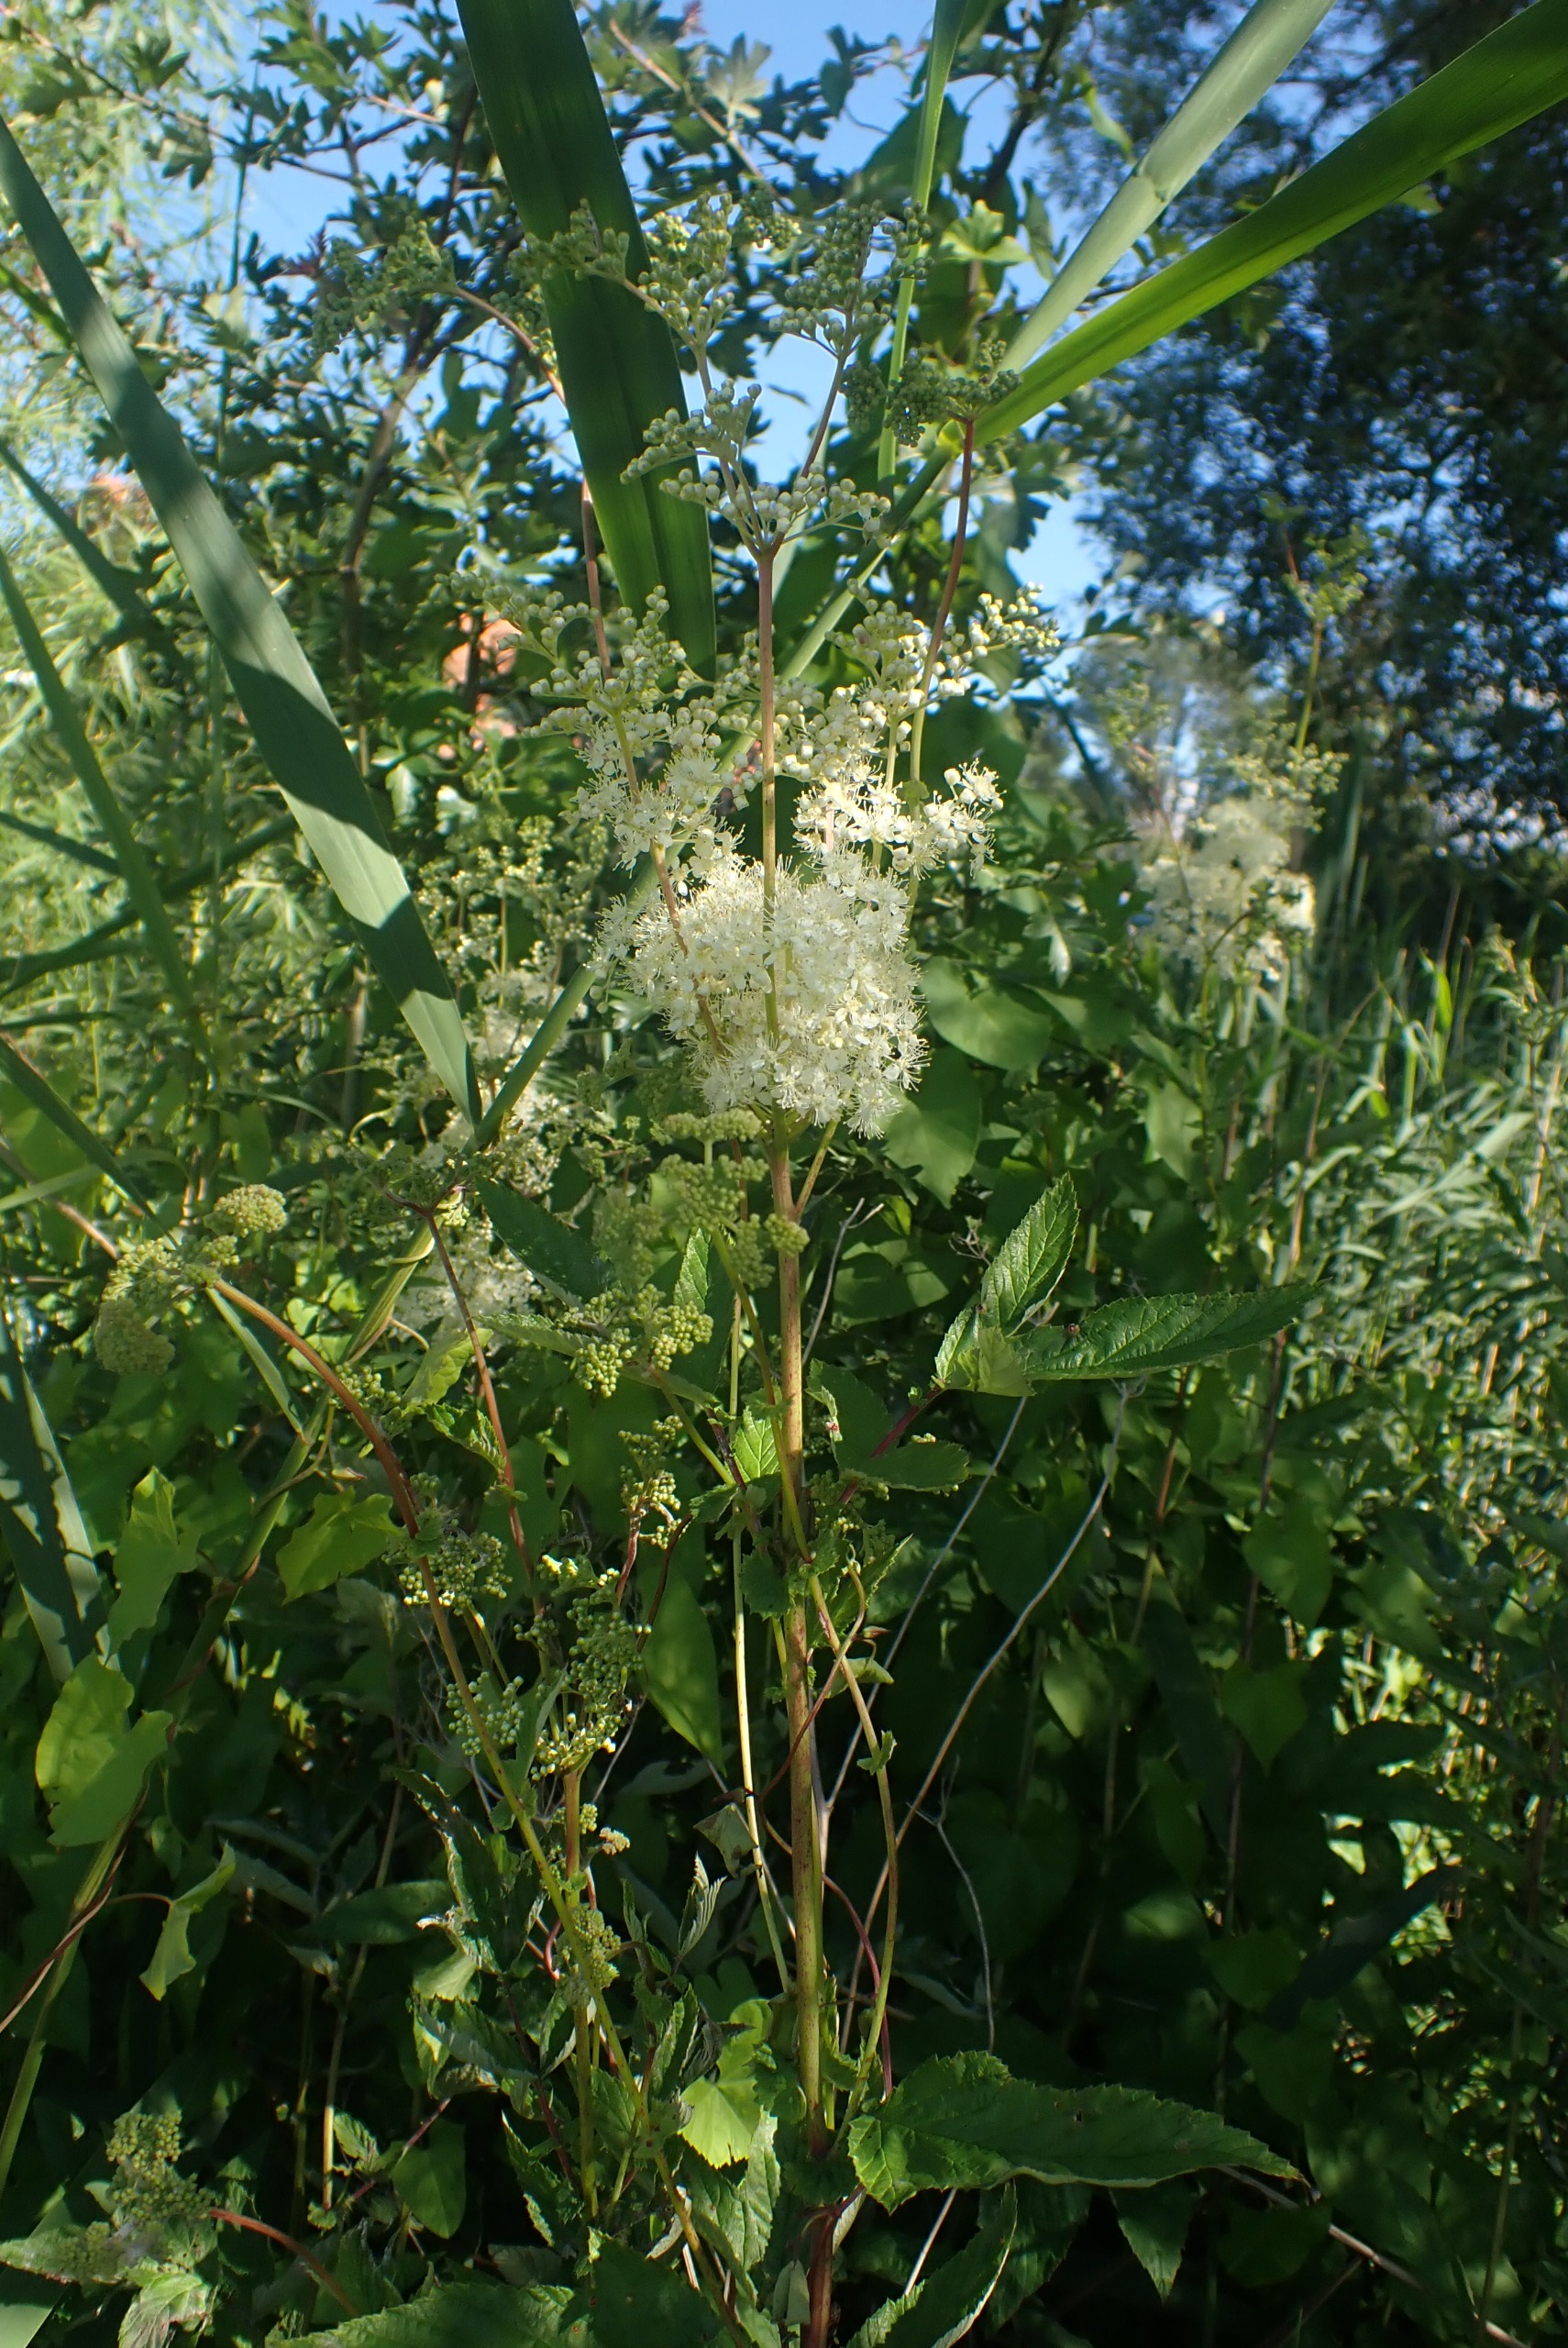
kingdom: Plantae
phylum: Tracheophyta
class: Magnoliopsida
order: Rosales
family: Rosaceae
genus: Filipendula
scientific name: Filipendula ulmaria
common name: Almindelig mjødurt
